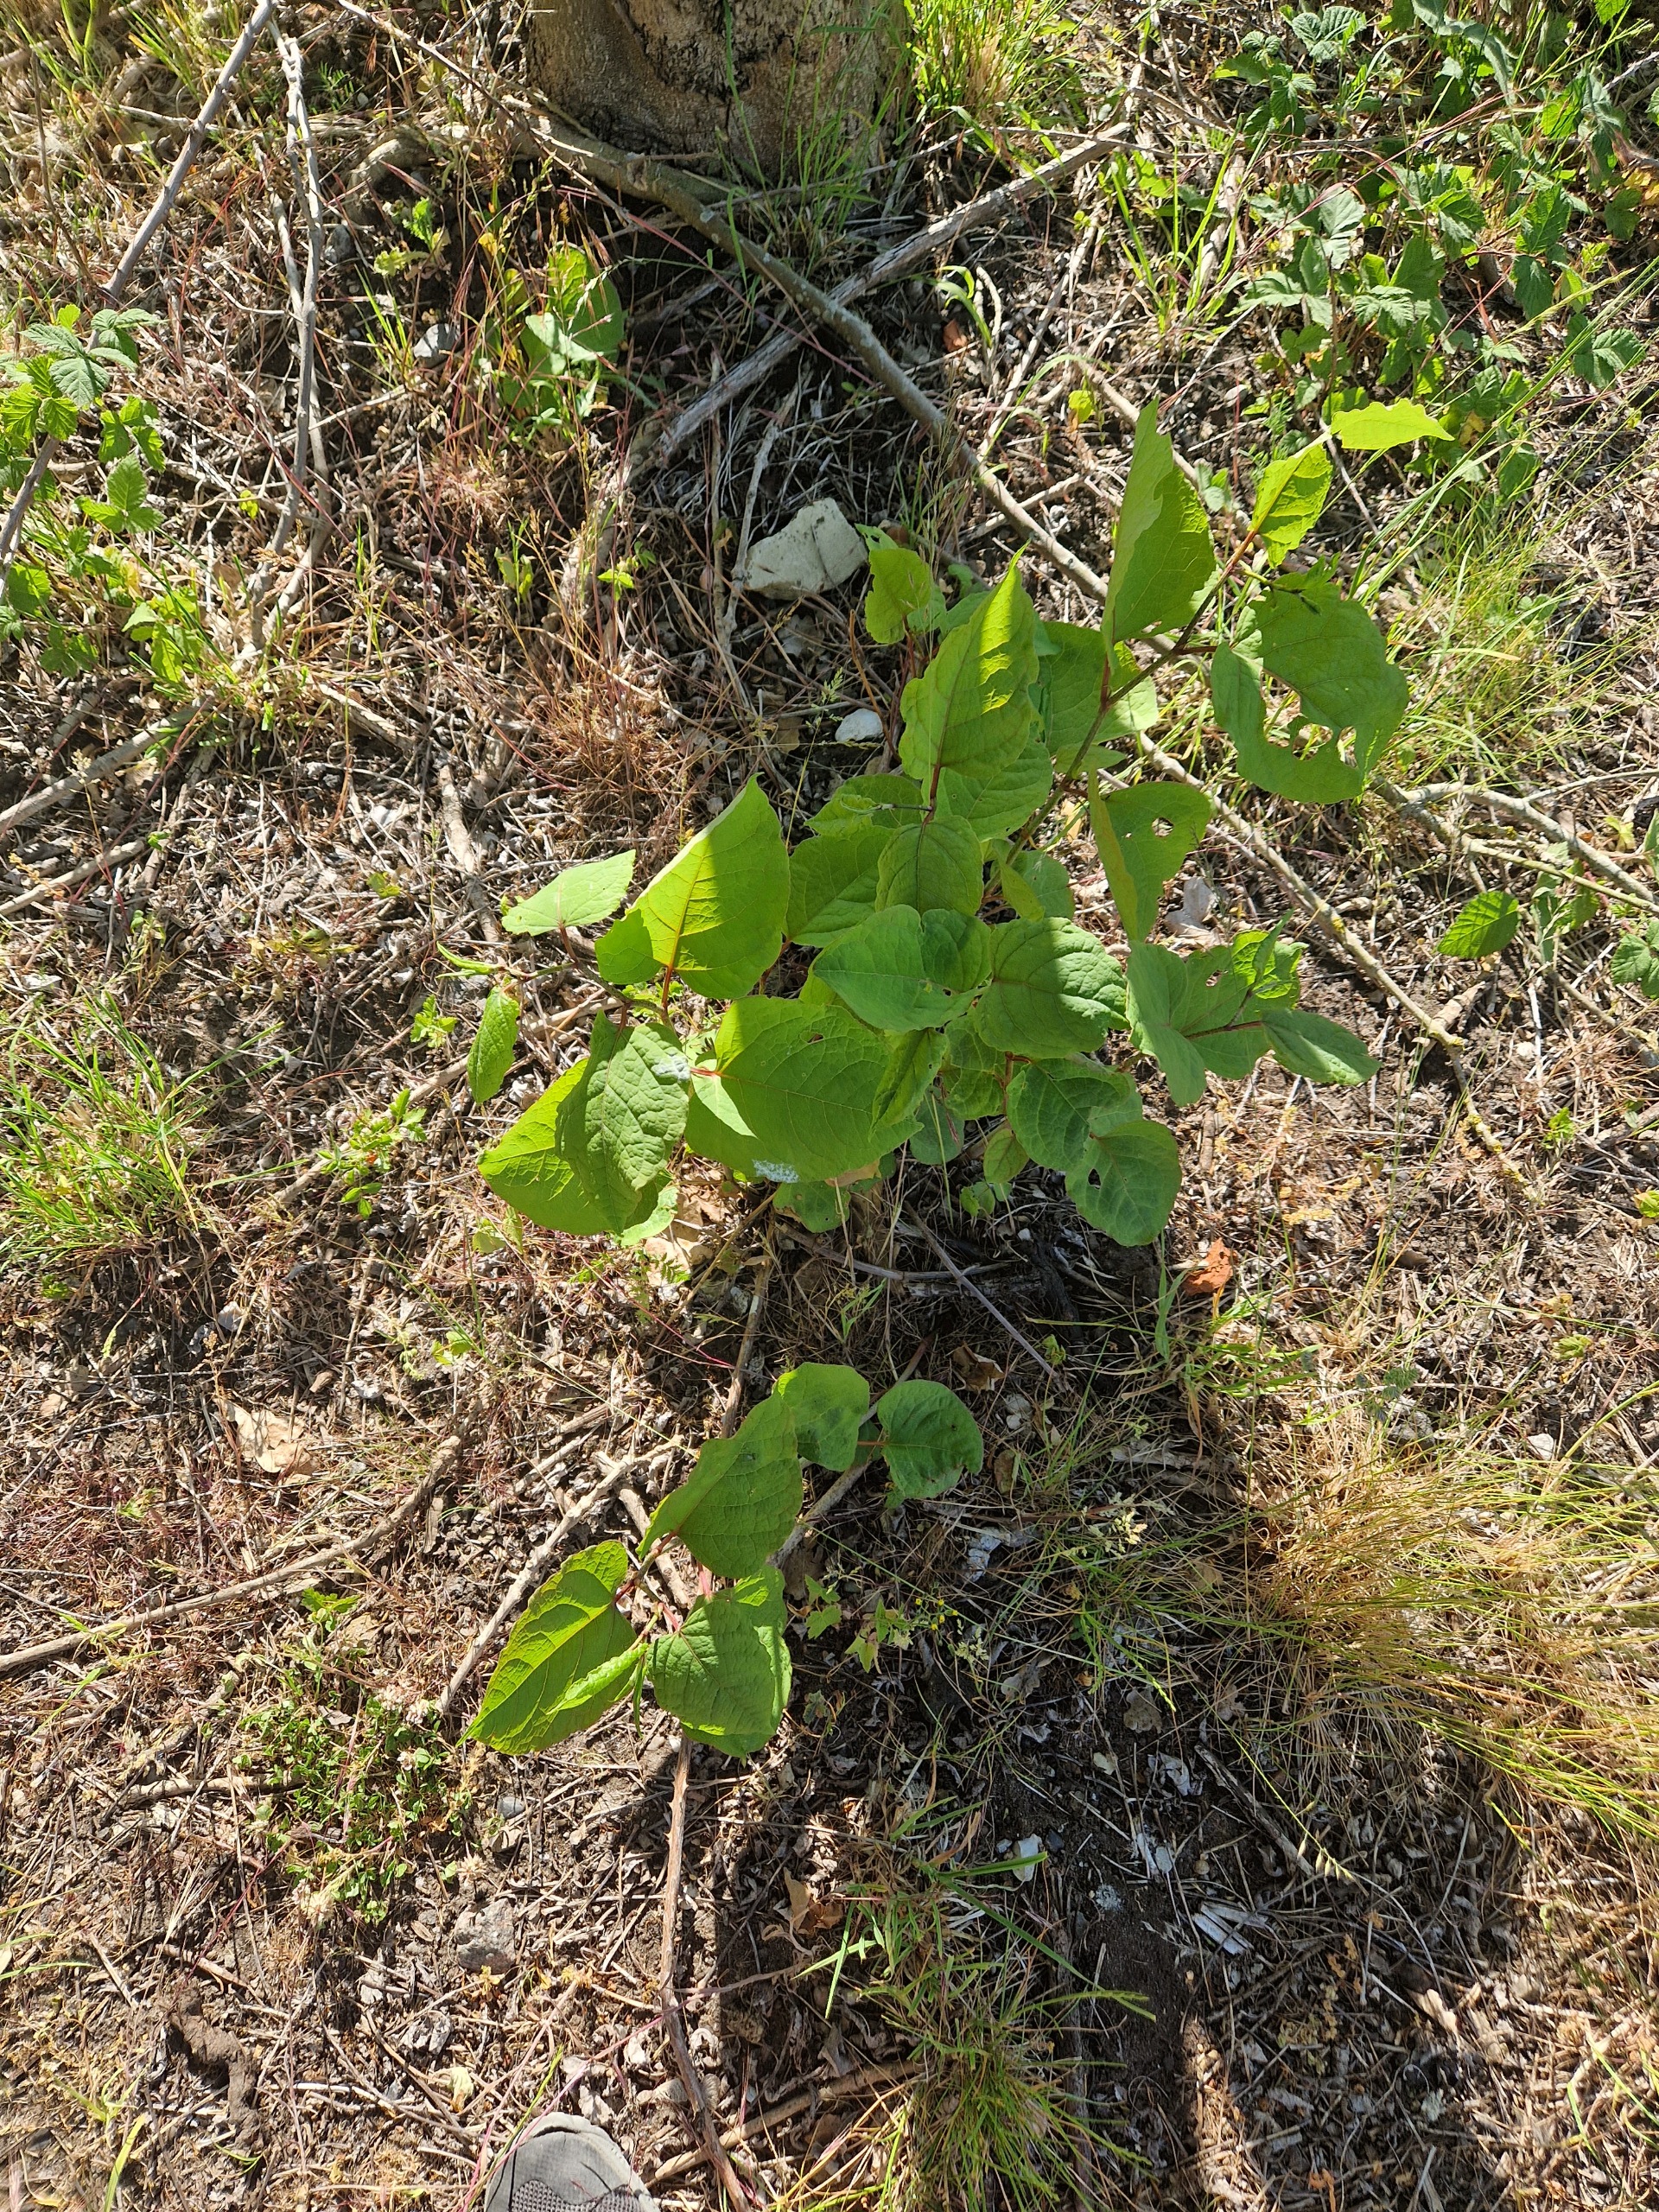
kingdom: Plantae
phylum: Tracheophyta
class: Magnoliopsida
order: Caryophyllales
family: Polygonaceae
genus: Reynoutria
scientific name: Reynoutria japonica
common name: Japan-pileurt
